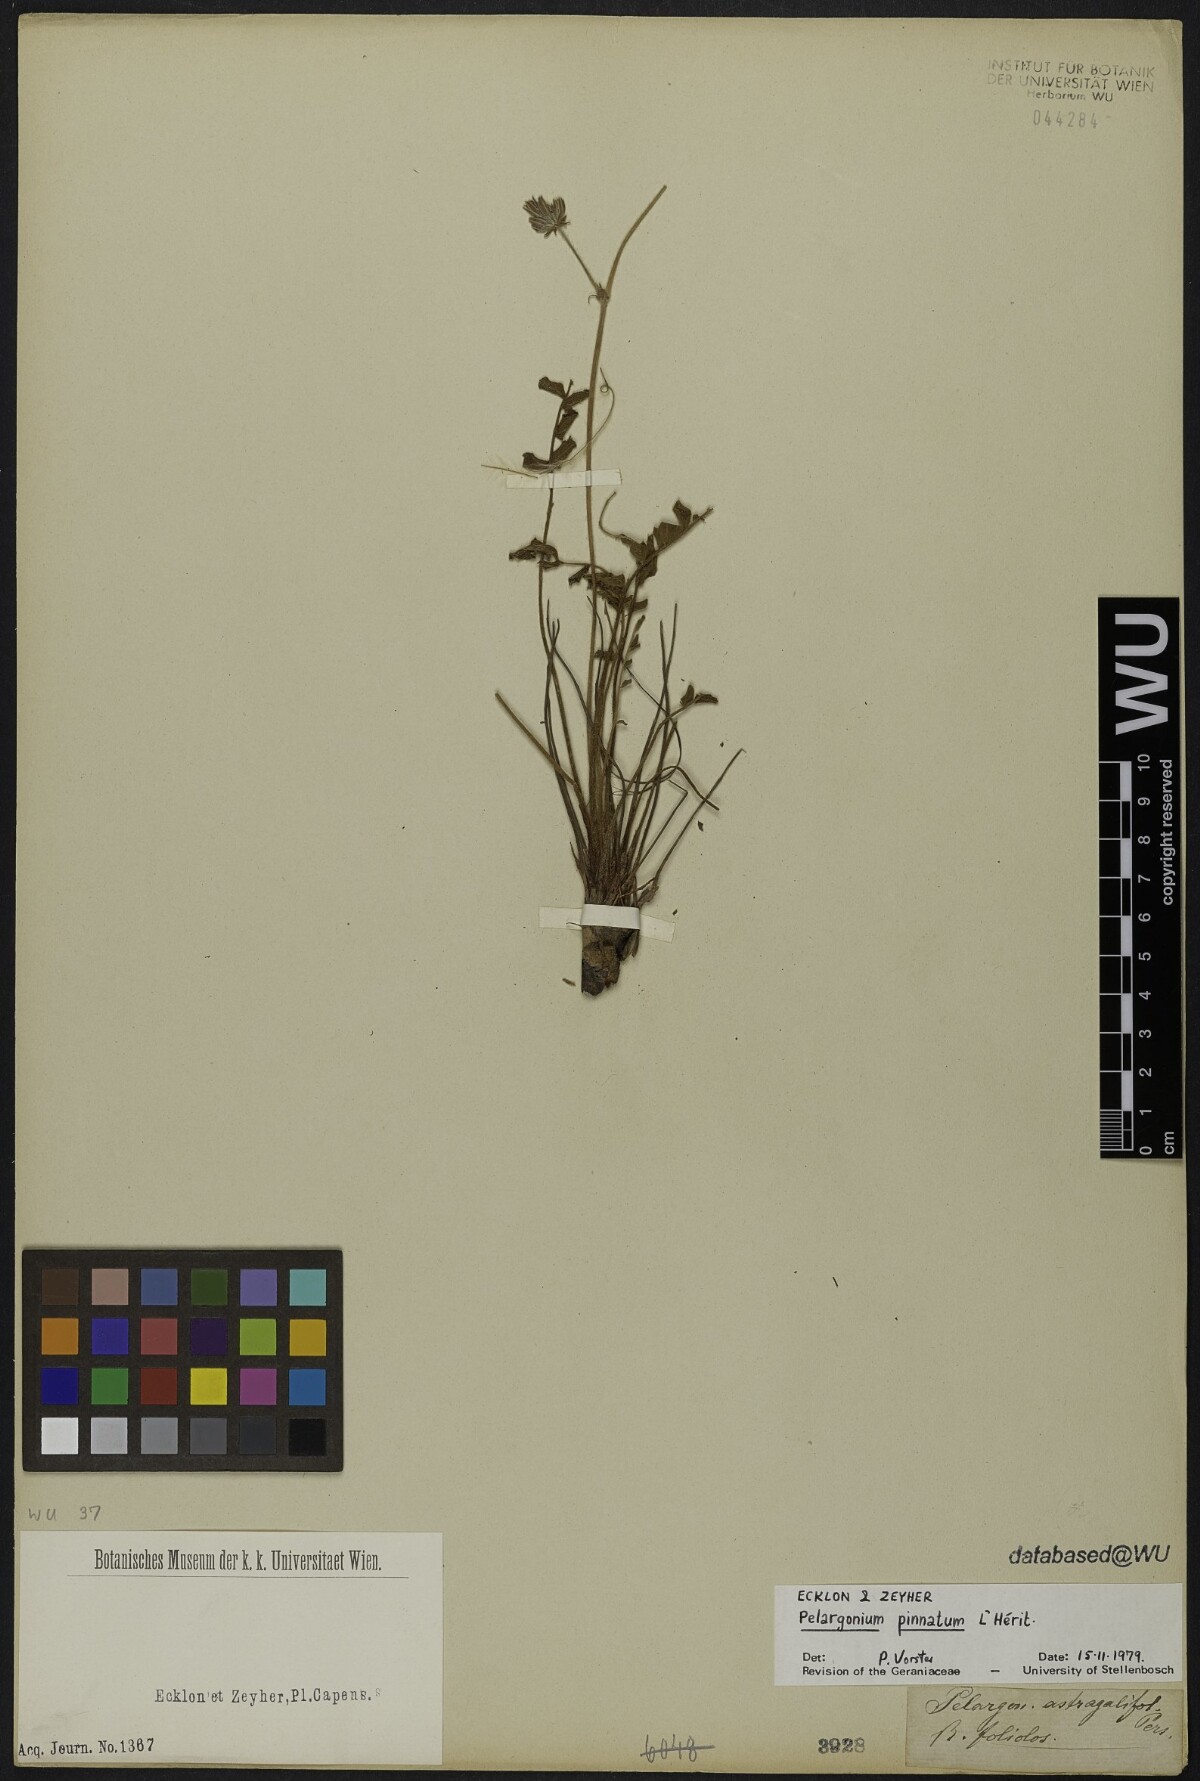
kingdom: Plantae
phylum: Tracheophyta
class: Magnoliopsida
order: Geraniales
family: Geraniaceae
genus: Pelargonium
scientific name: Pelargonium pinnatum
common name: Pinnated pelargonium
